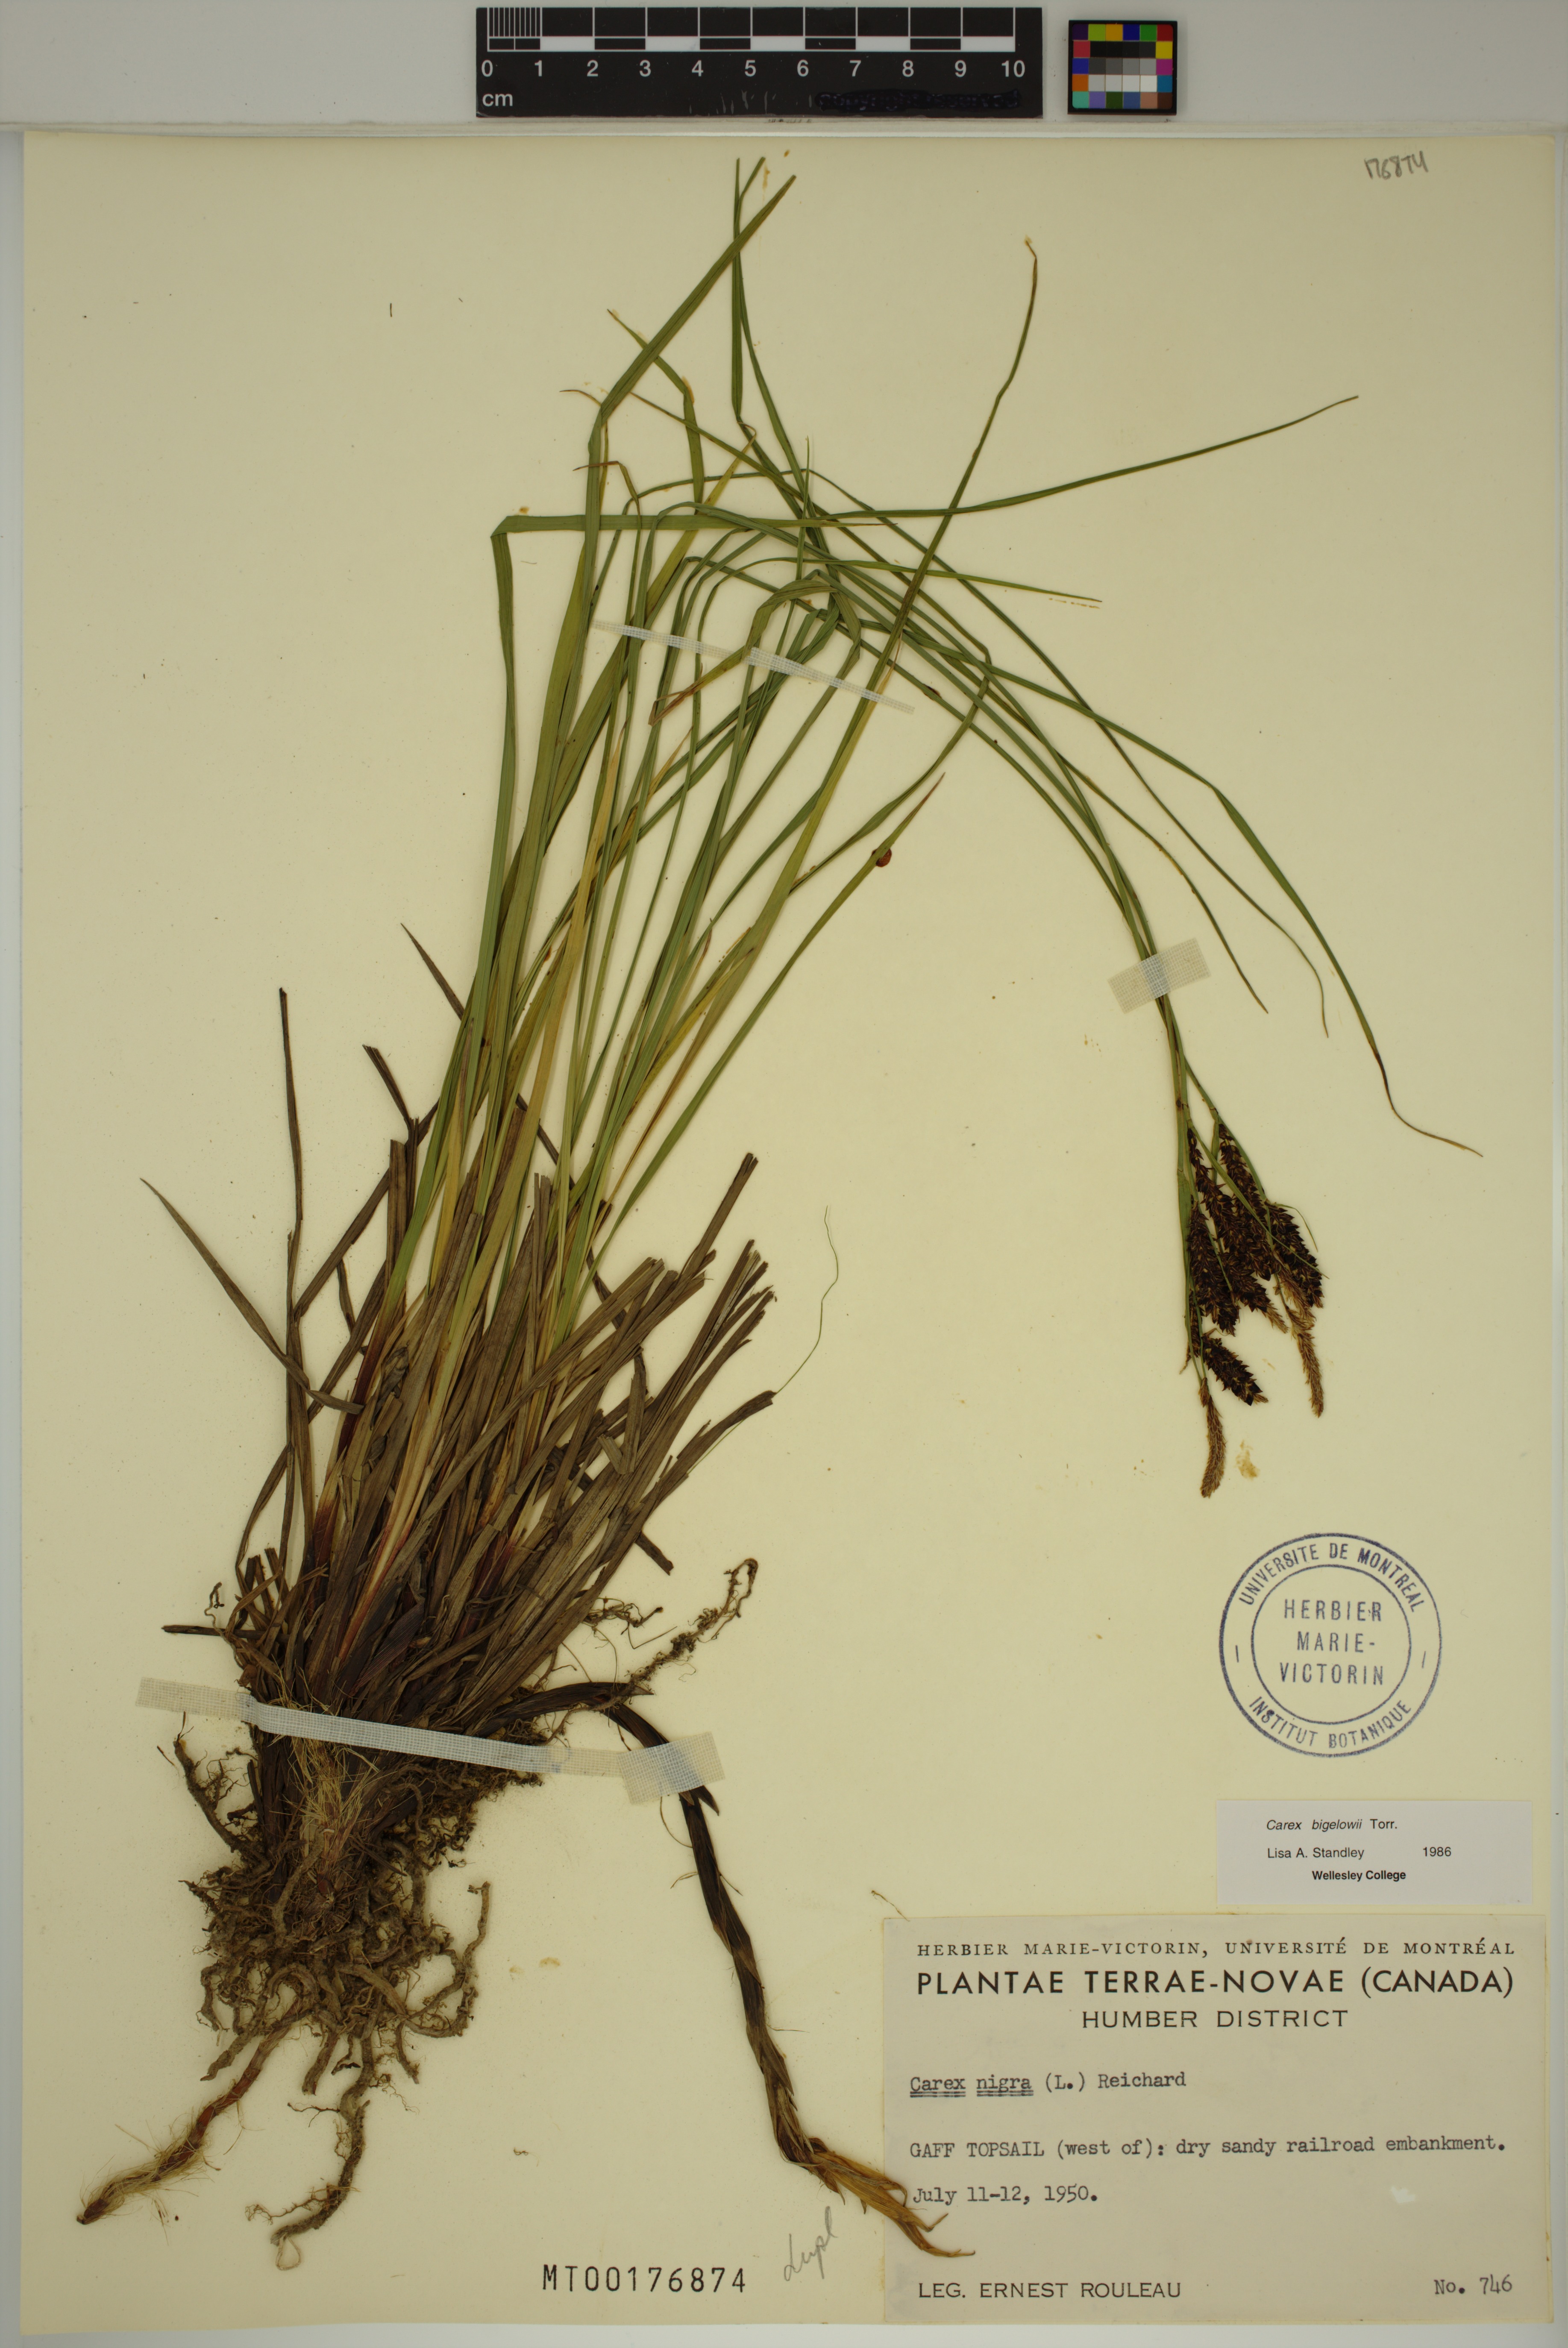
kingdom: Plantae
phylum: Tracheophyta
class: Liliopsida
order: Poales
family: Cyperaceae
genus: Carex
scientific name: Carex bigelowii
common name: Stiff sedge
